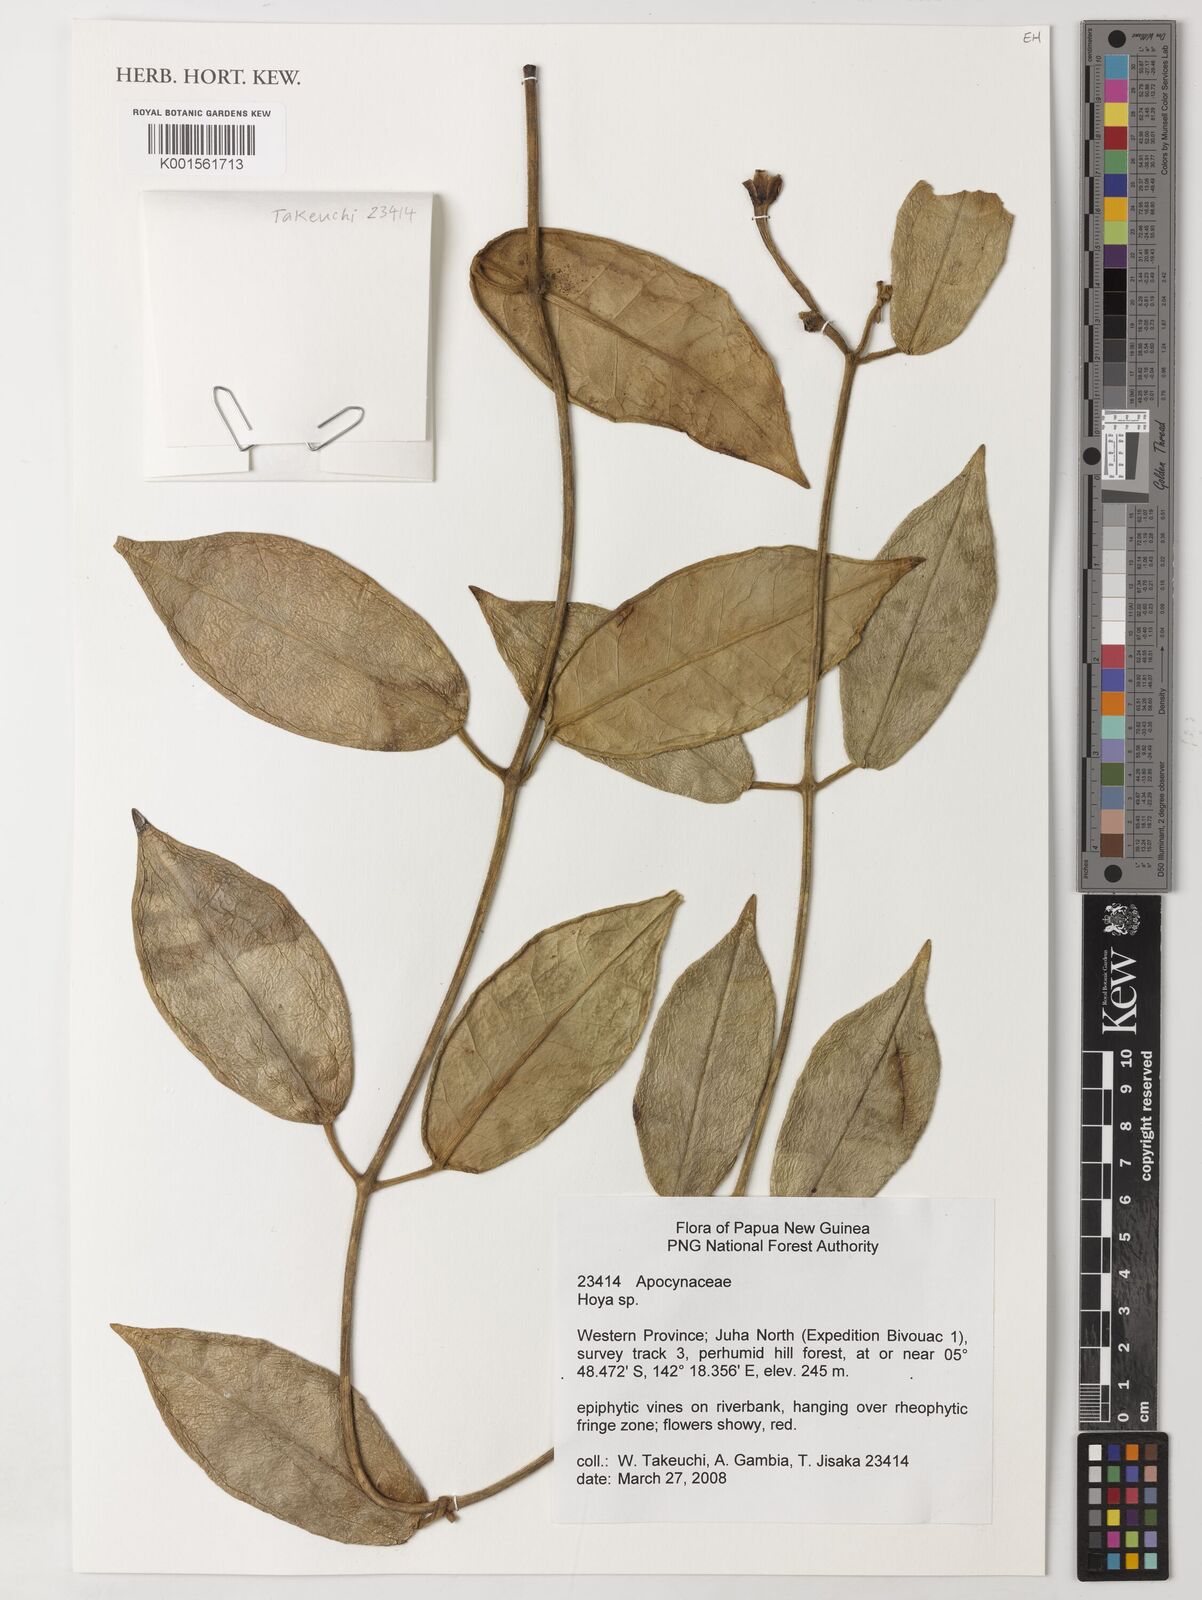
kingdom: Plantae
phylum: Tracheophyta
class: Magnoliopsida
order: Gentianales
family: Apocynaceae
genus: Hoya
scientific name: Hoya
